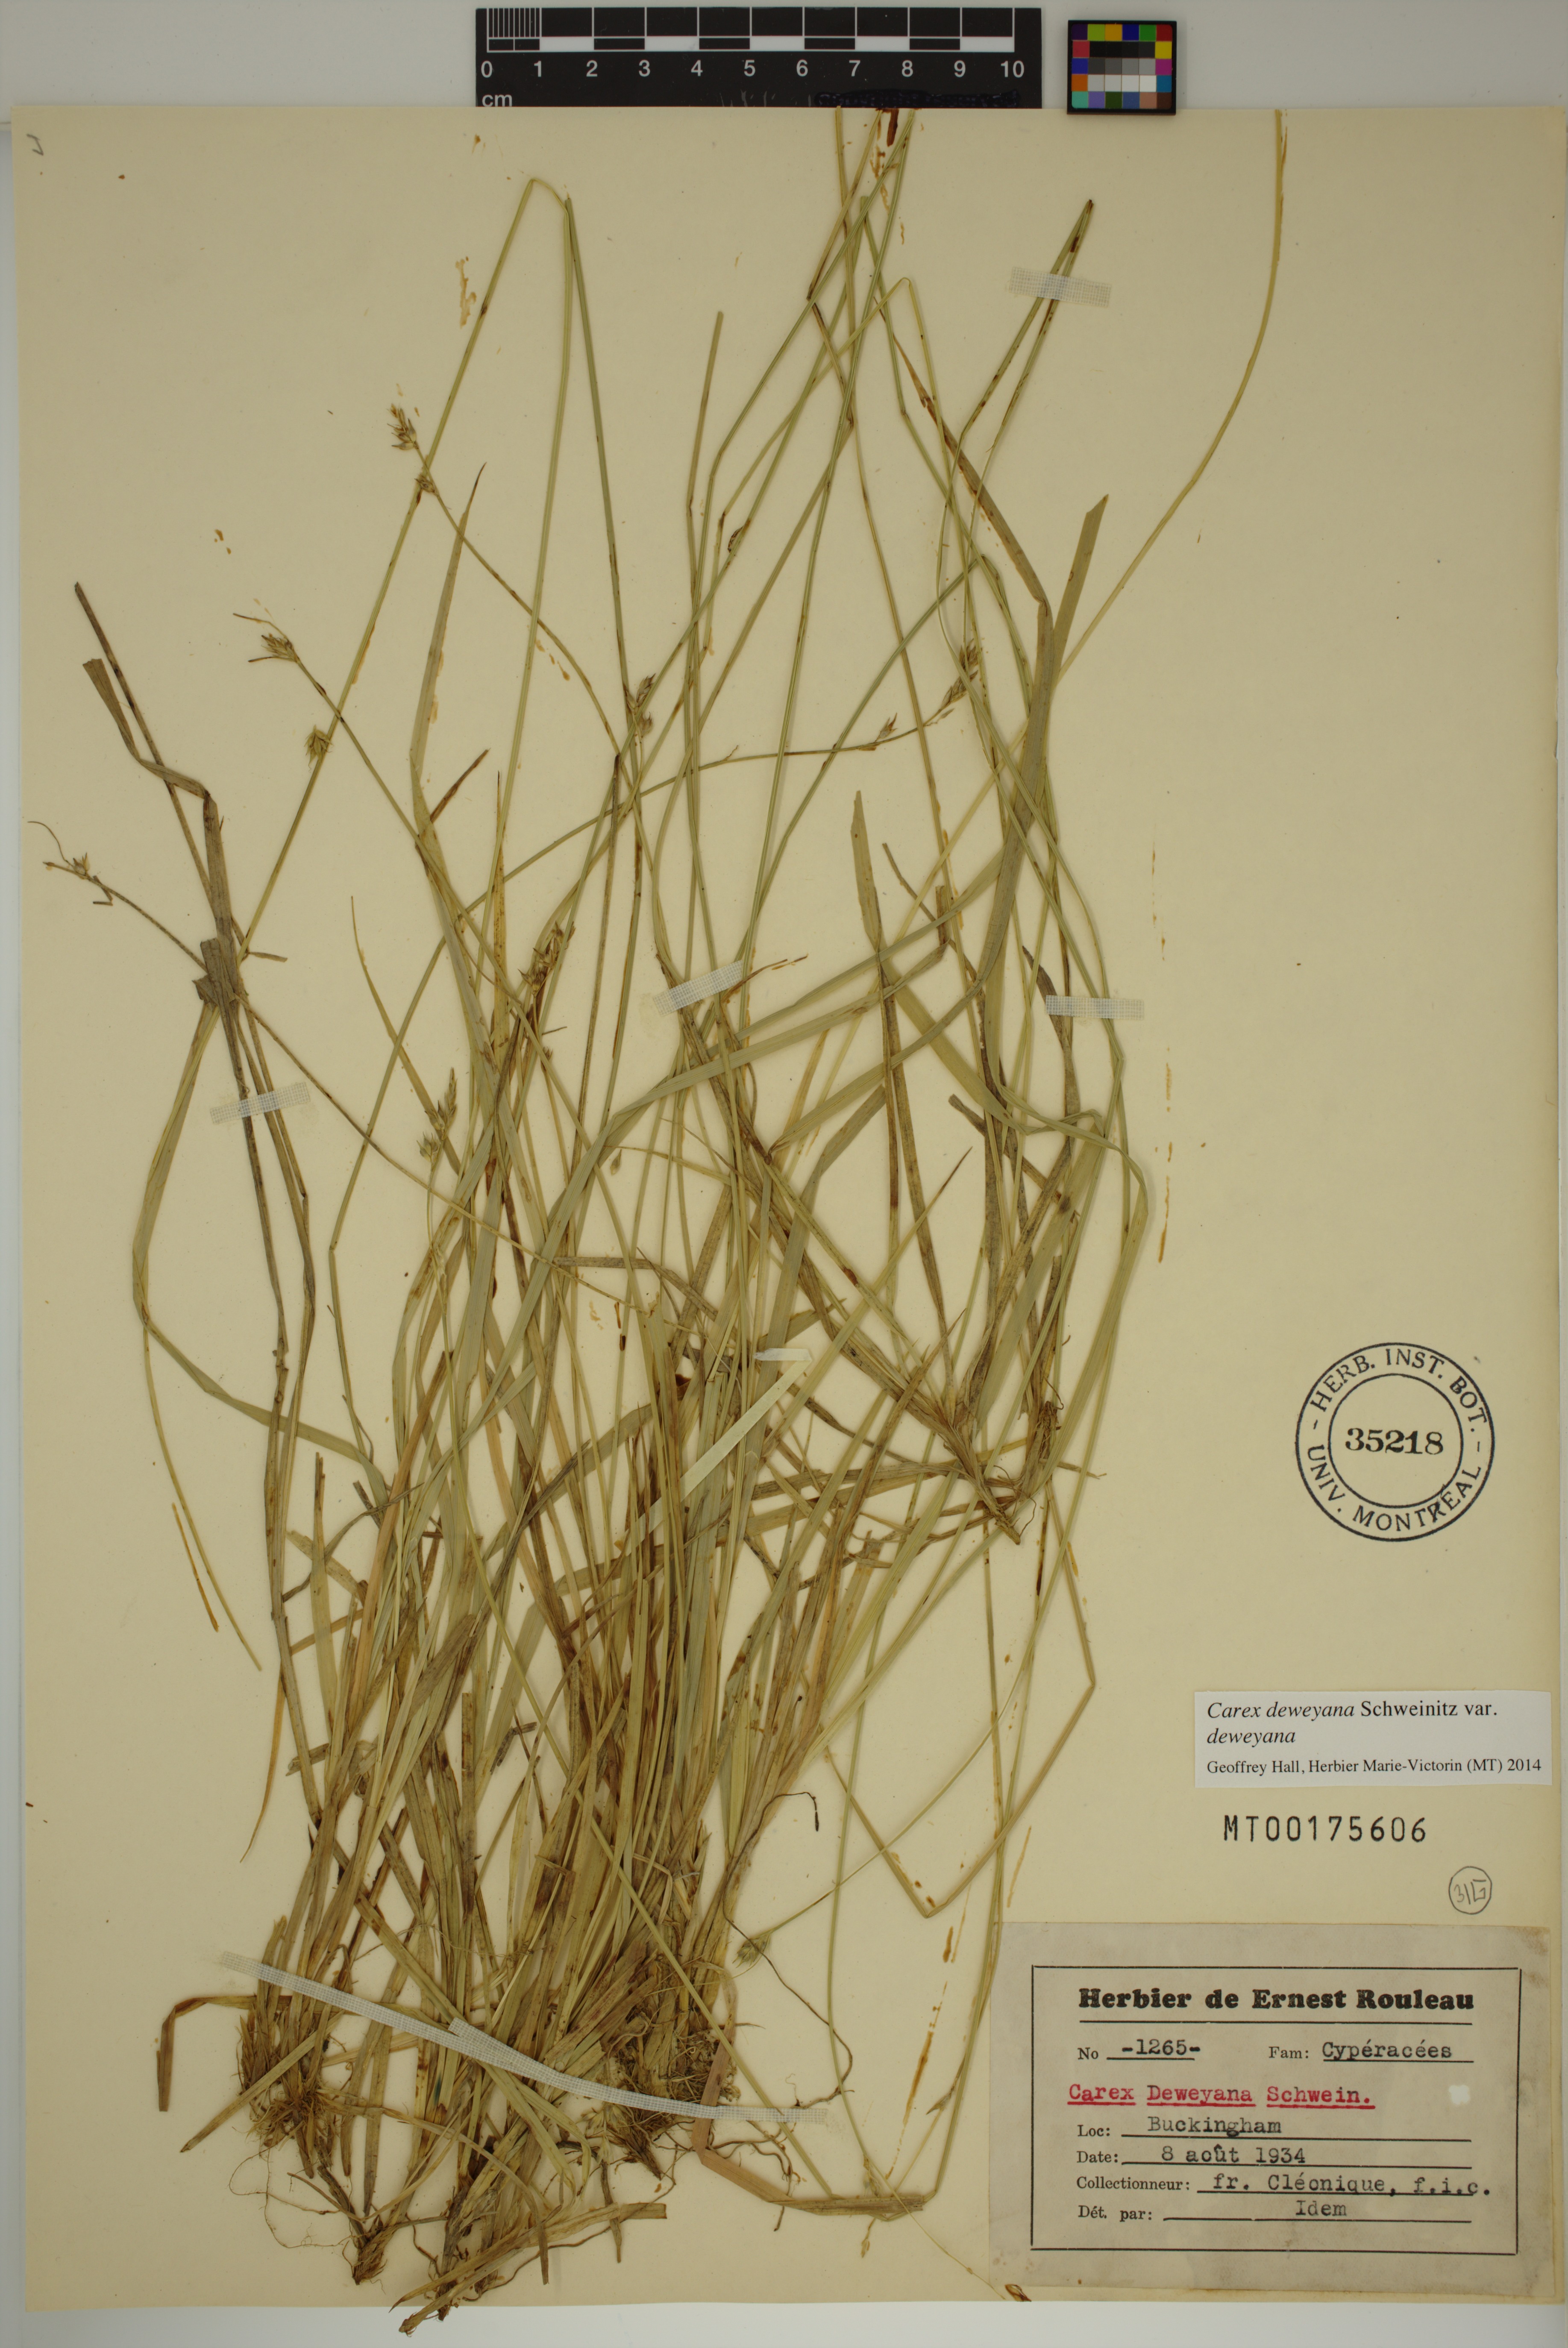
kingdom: Plantae
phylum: Tracheophyta
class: Liliopsida
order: Poales
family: Cyperaceae
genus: Carex
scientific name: Carex deweyana
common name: Dewey's sedge
